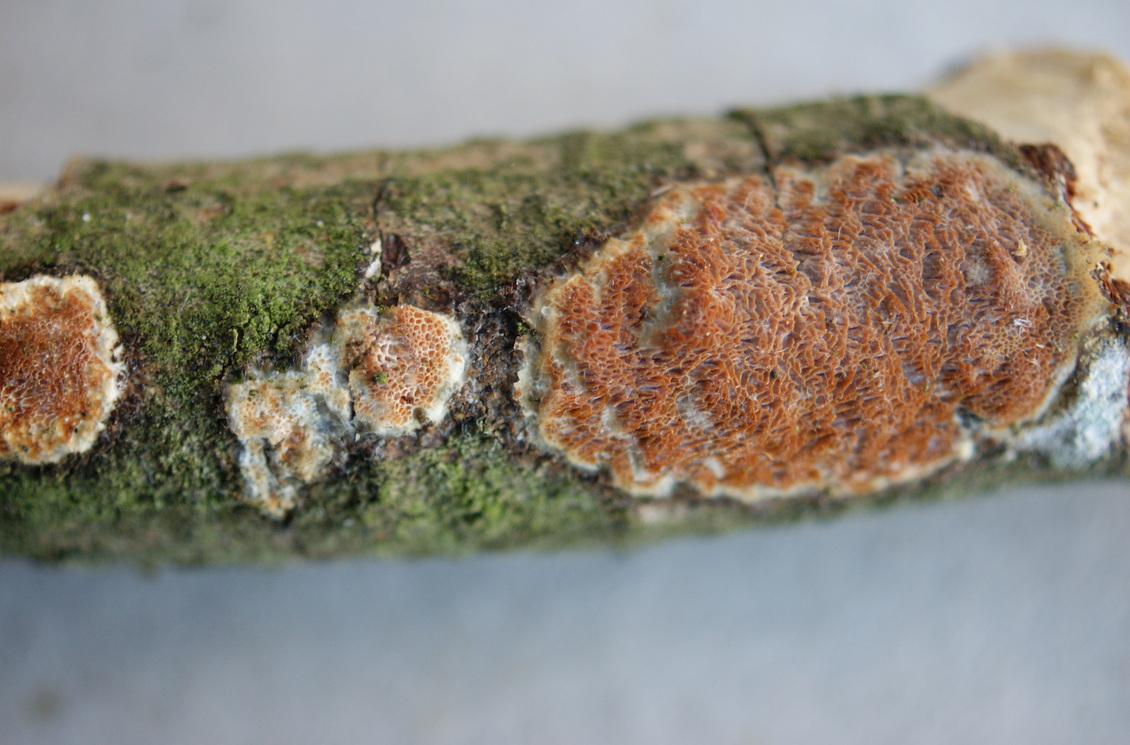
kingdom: Fungi
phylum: Basidiomycota
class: Agaricomycetes
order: Polyporales
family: Irpicaceae
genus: Resiniporus
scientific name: Resiniporus resinascens
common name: trist pastelporesvamp
